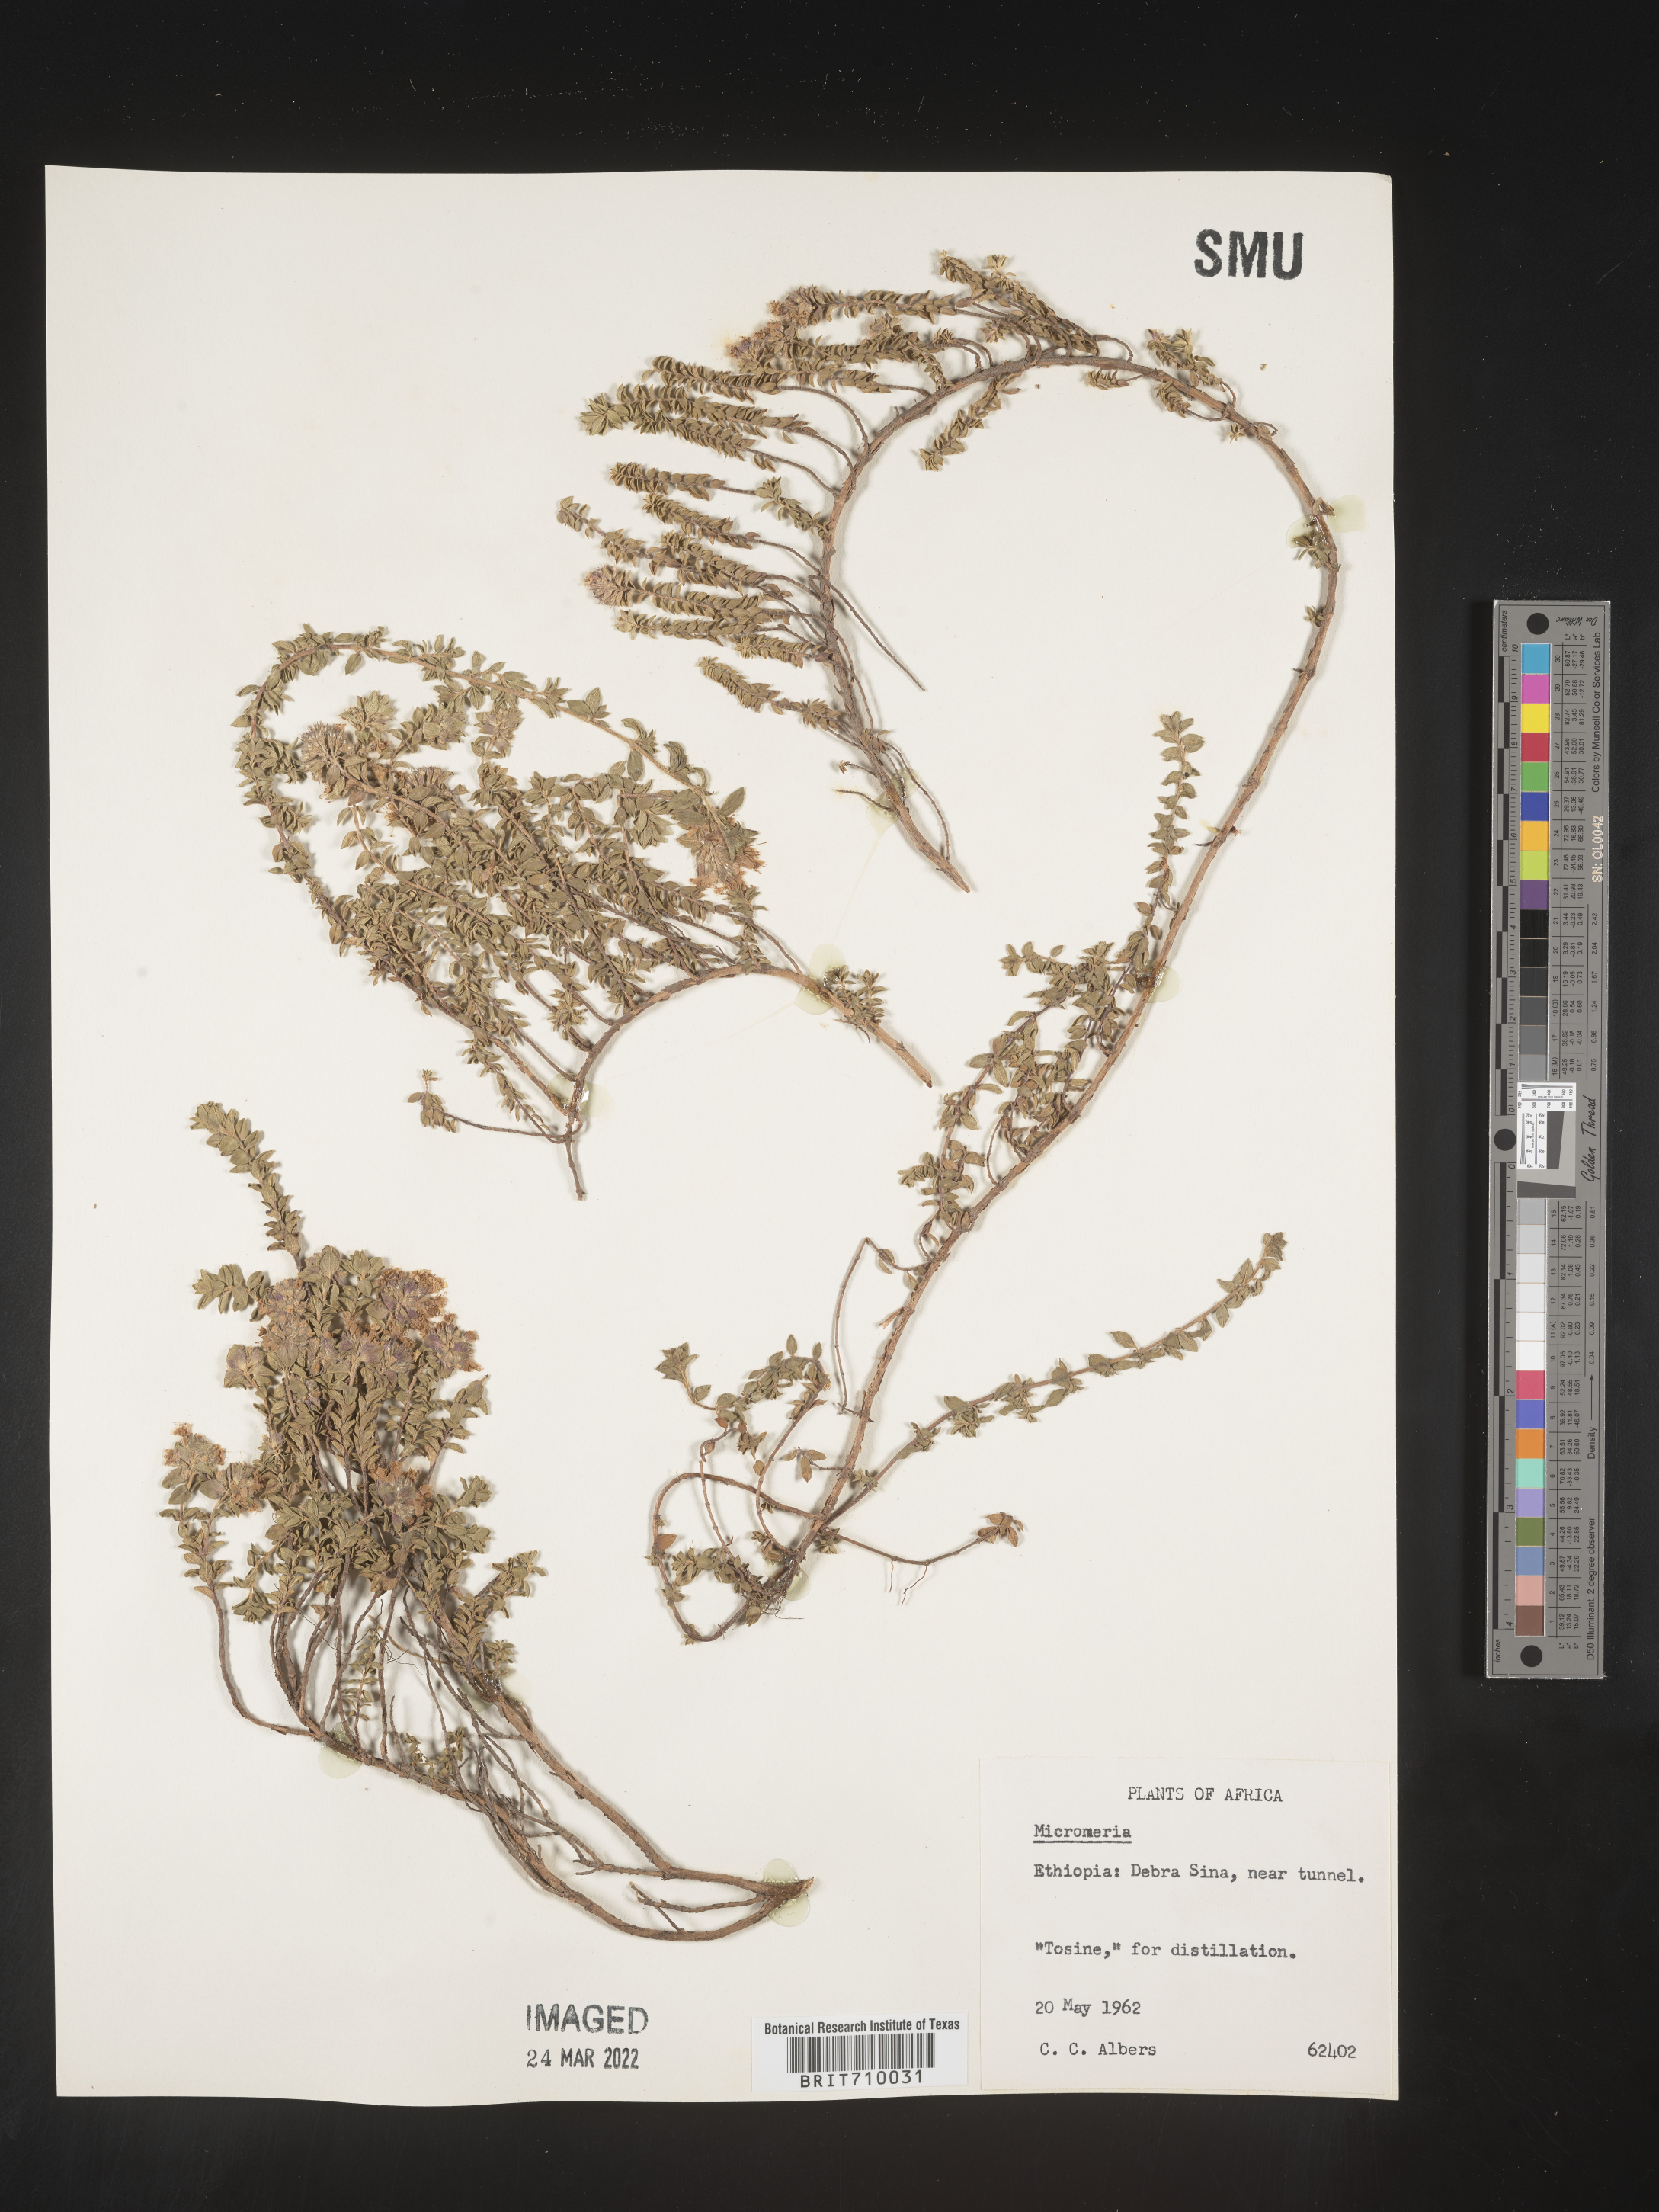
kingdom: Plantae
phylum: Tracheophyta
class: Magnoliopsida
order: Lamiales
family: Lamiaceae
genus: Micromeria
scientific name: Micromeria
